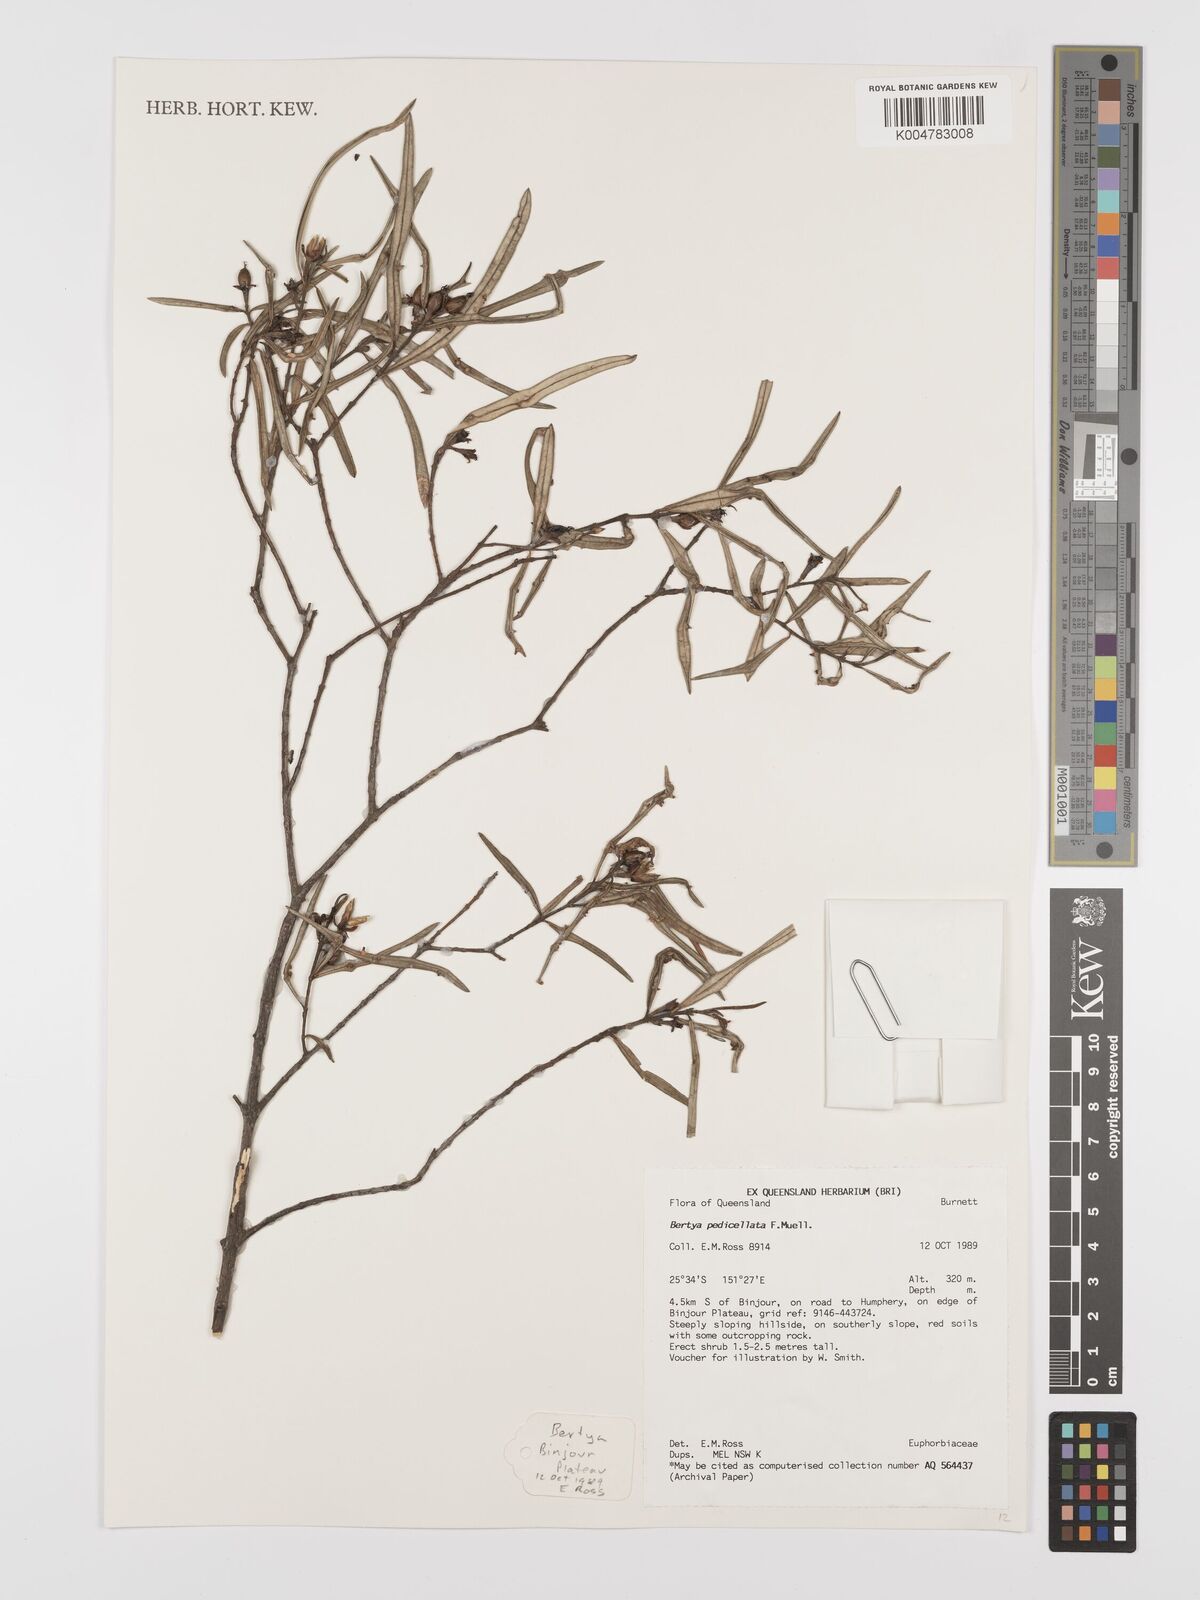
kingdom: Plantae
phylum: Tracheophyta
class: Magnoliopsida
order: Malpighiales
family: Euphorbiaceae
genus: Bertya
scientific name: Bertya pedicellata
